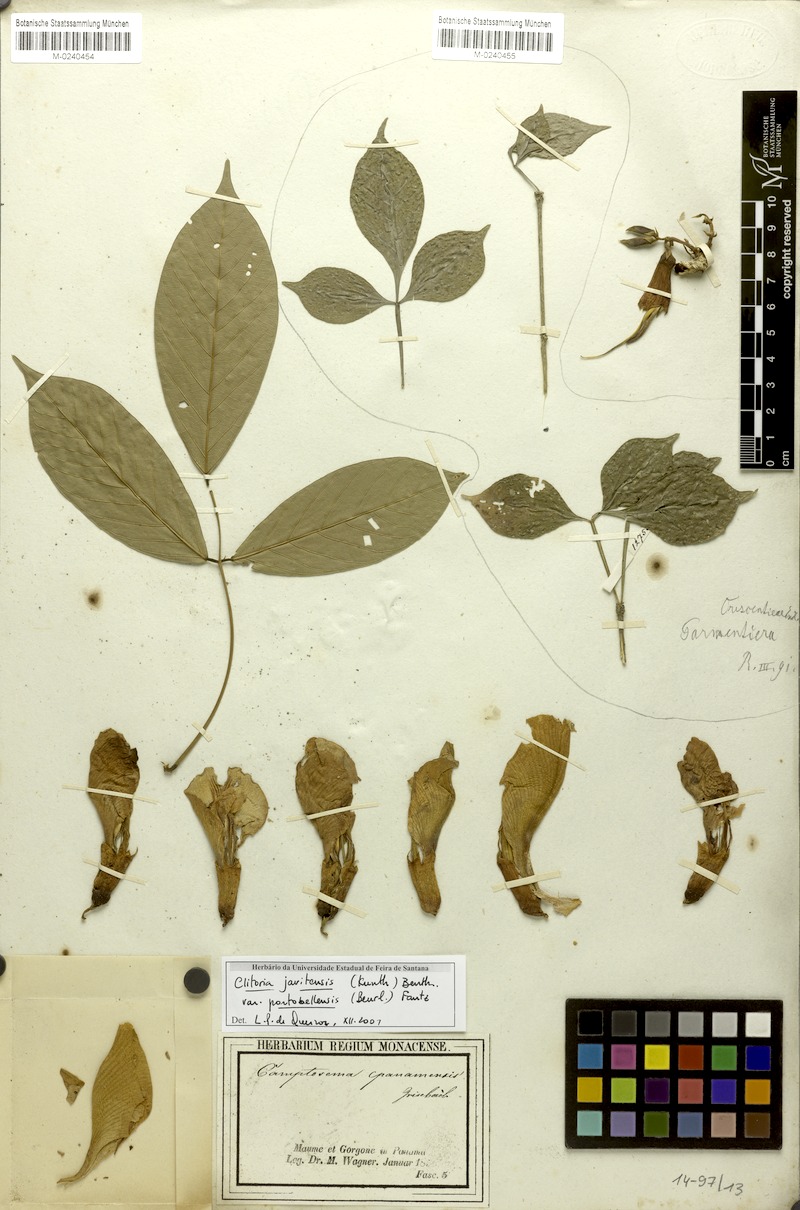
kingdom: Plantae
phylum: Tracheophyta
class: Magnoliopsida
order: Fabales
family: Fabaceae
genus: Clitoria
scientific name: Clitoria javitensis
